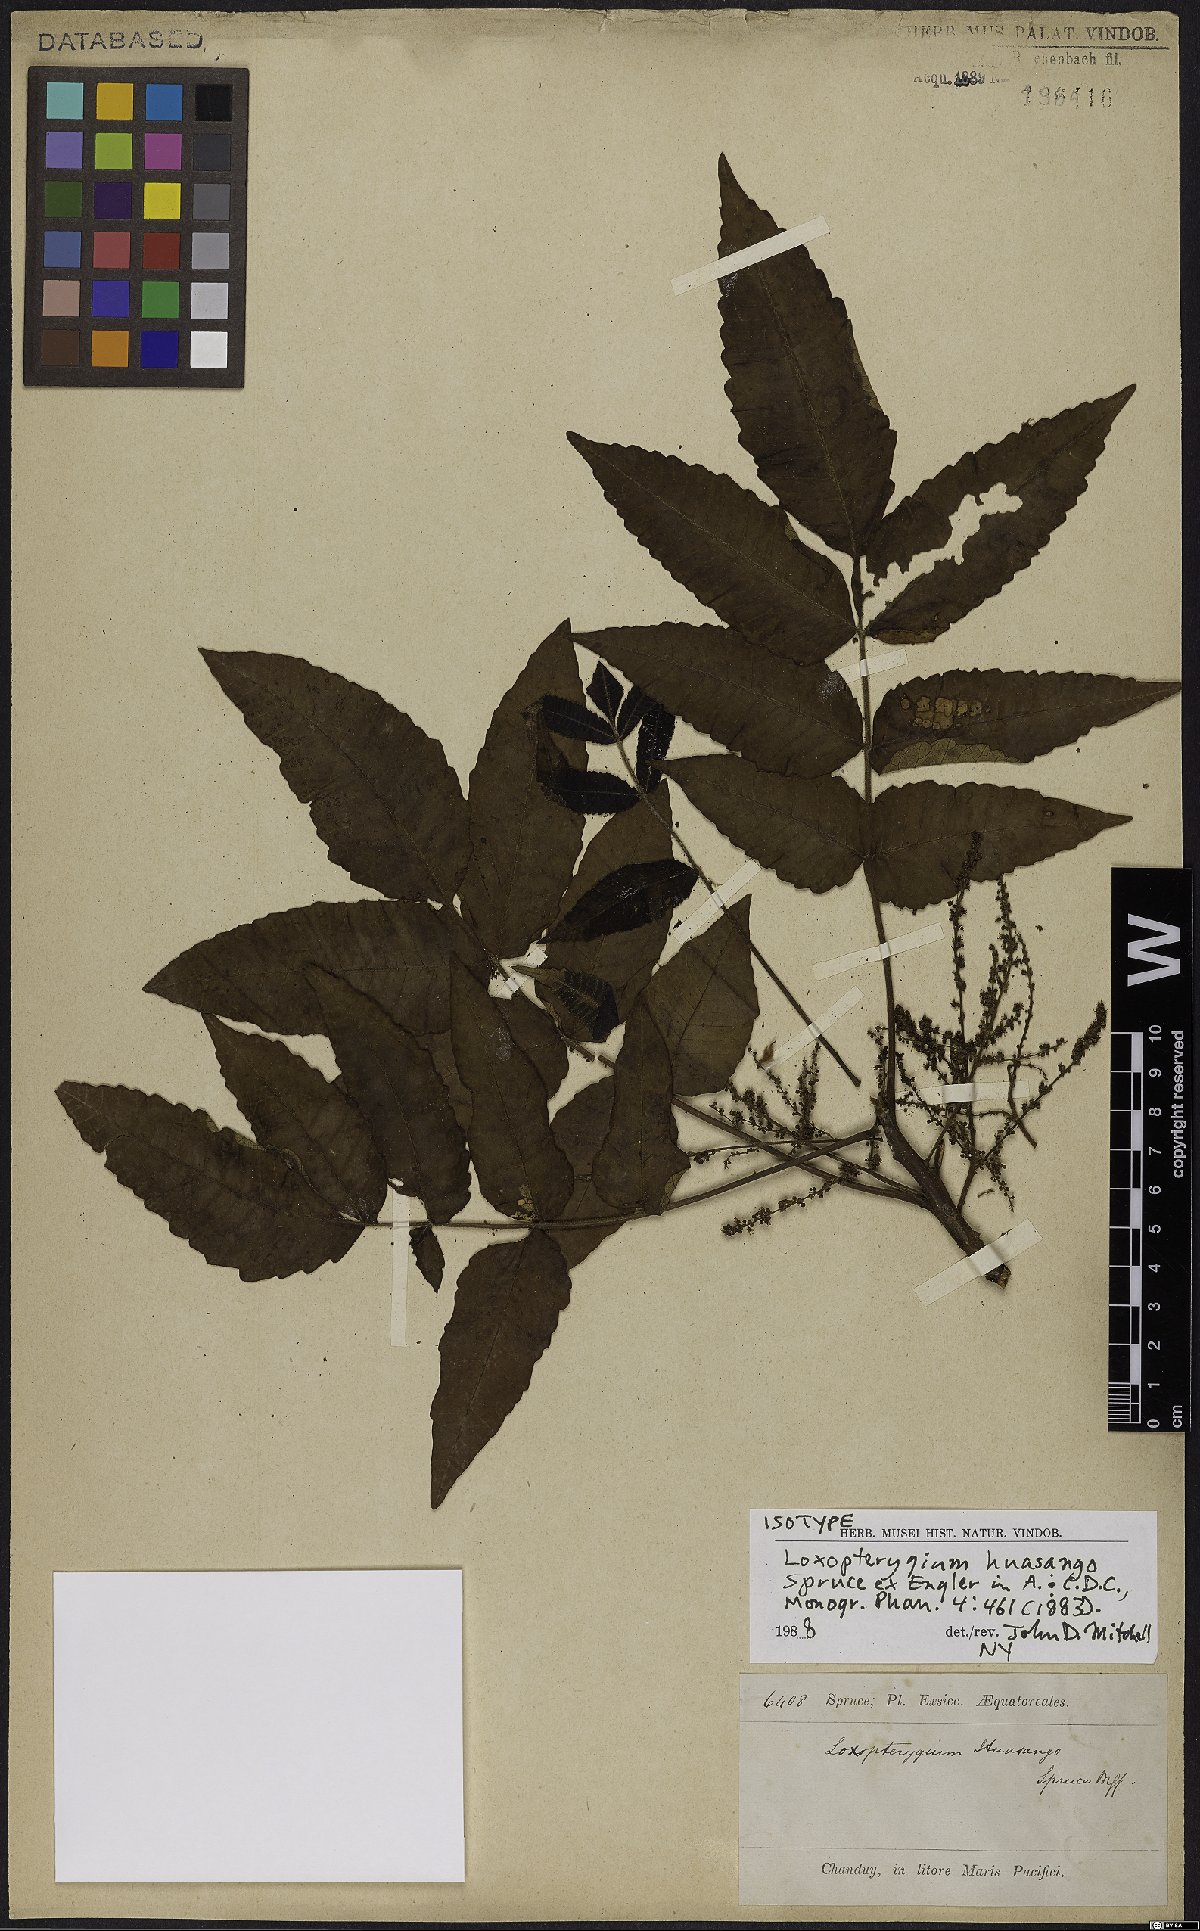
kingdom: Plantae
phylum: Tracheophyta
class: Magnoliopsida
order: Sapindales
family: Anacardiaceae
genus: Loxopterygium
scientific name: Loxopterygium huasango
